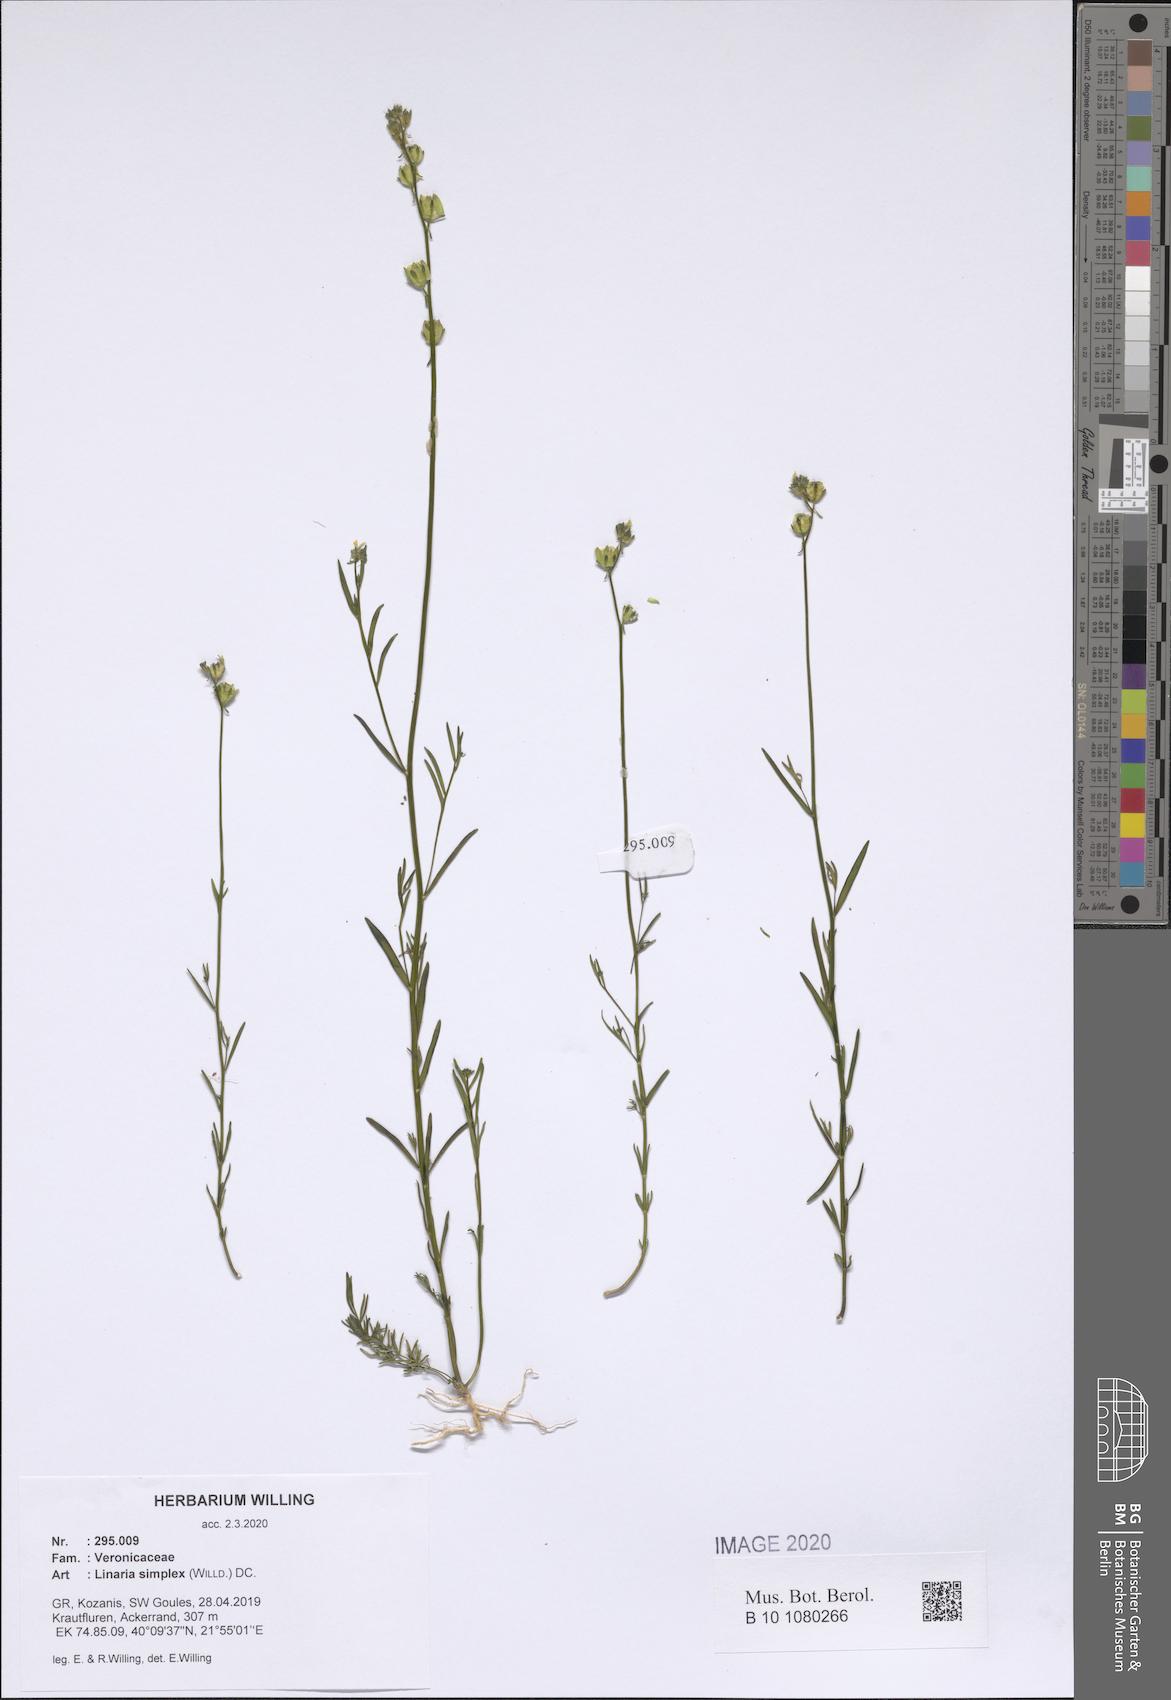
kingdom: Plantae
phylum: Tracheophyta
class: Magnoliopsida
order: Lamiales
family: Plantaginaceae
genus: Linaria
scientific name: Linaria simplex
